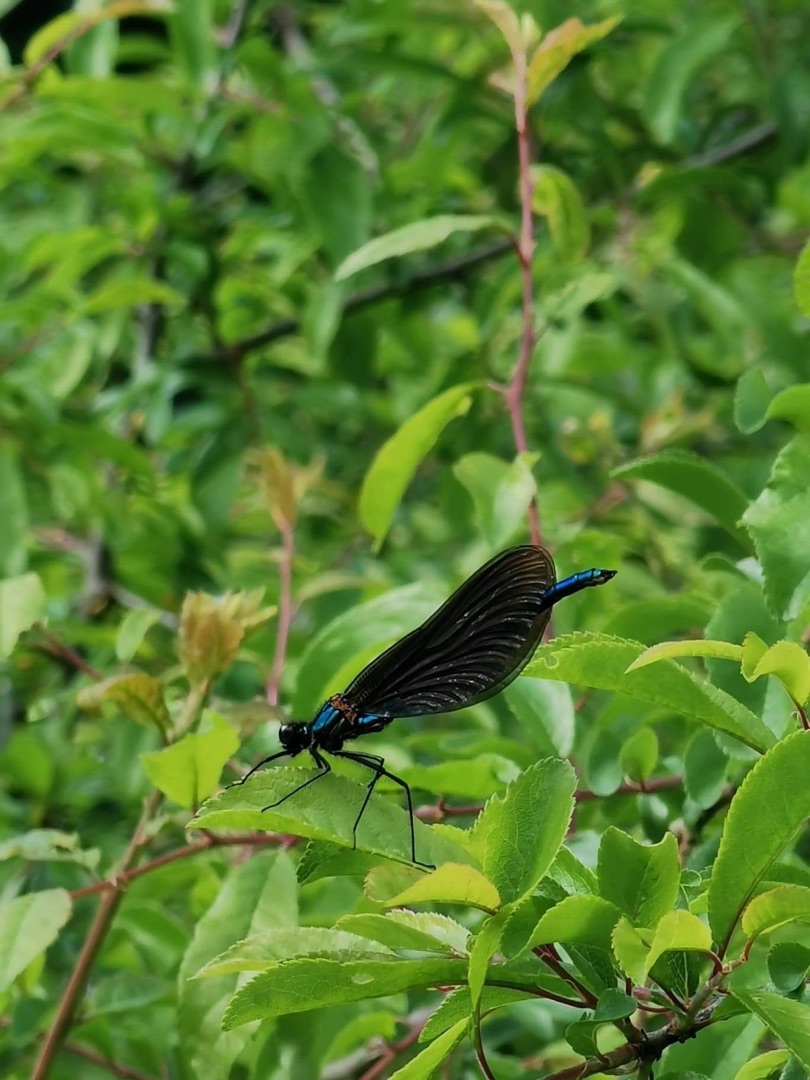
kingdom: Animalia
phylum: Arthropoda
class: Insecta
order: Odonata
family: Calopterygidae
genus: Calopteryx
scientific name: Calopteryx virgo
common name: Blåvinget pragtvandnymfe
